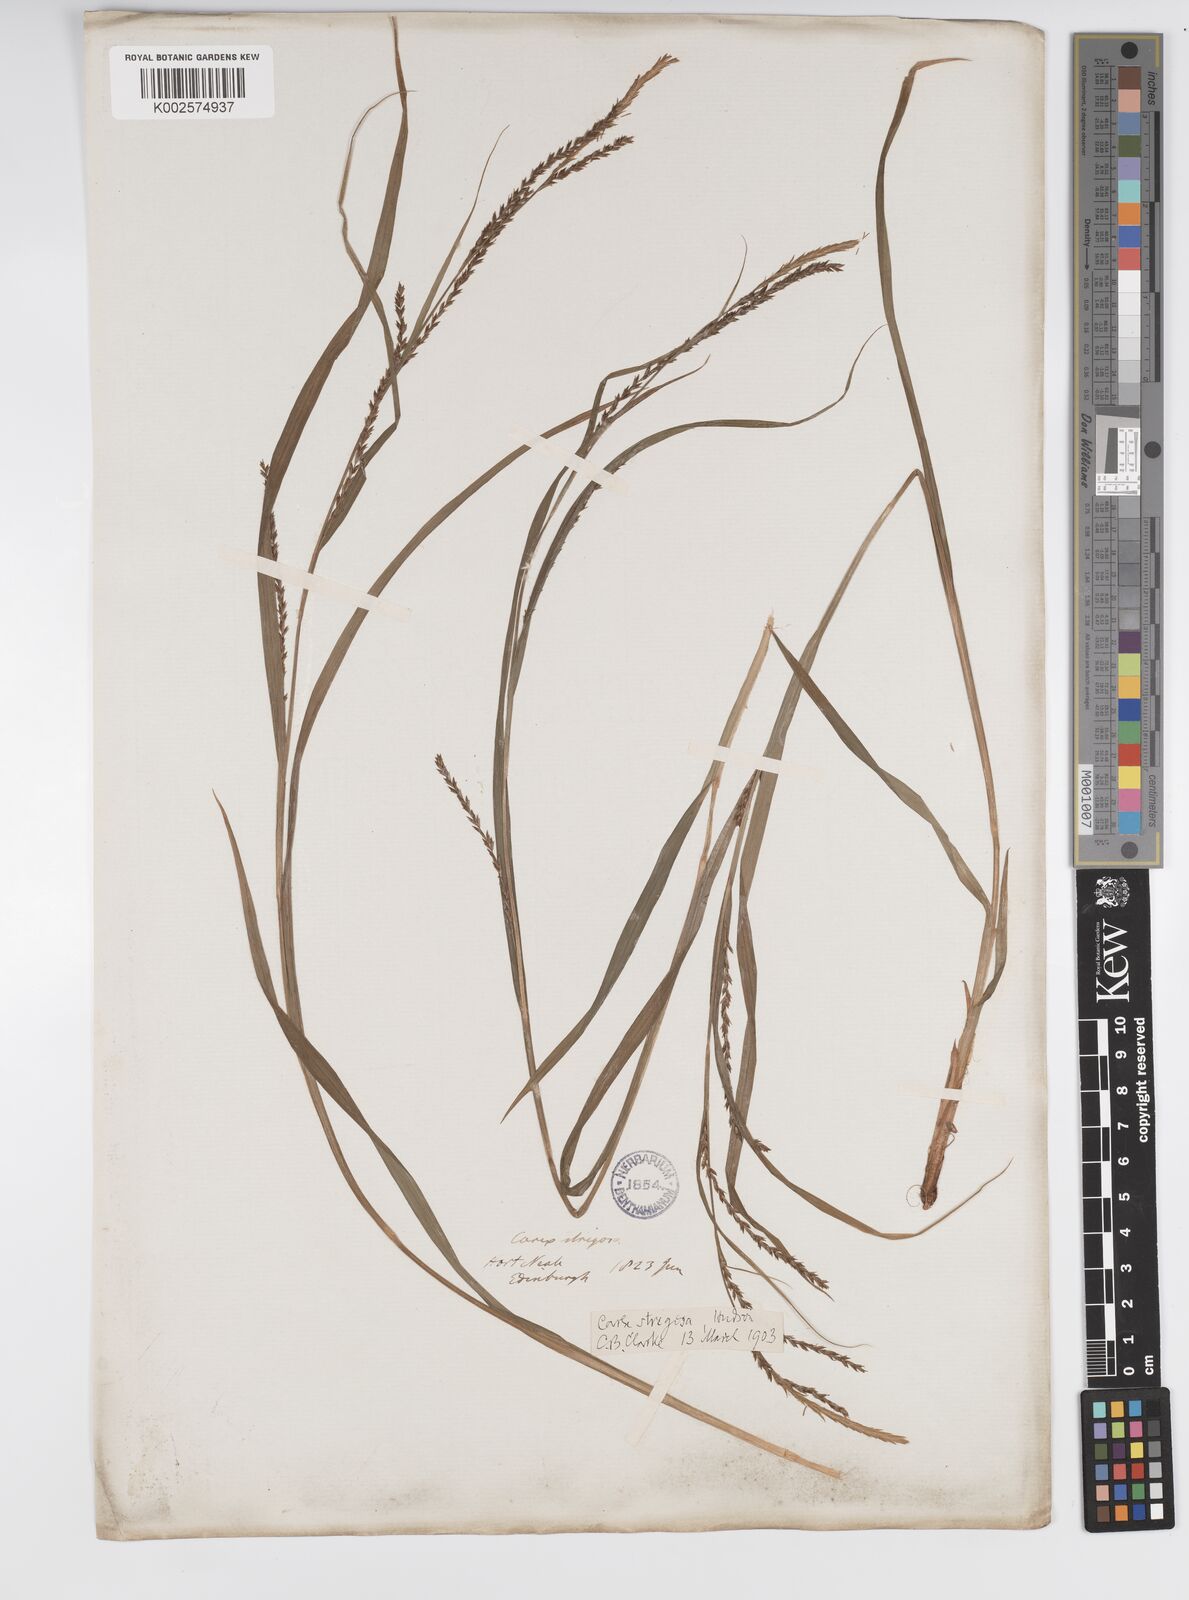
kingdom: Plantae
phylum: Tracheophyta
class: Liliopsida
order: Poales
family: Cyperaceae
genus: Carex
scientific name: Carex strigosa
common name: Thin-spiked wood-sedge
